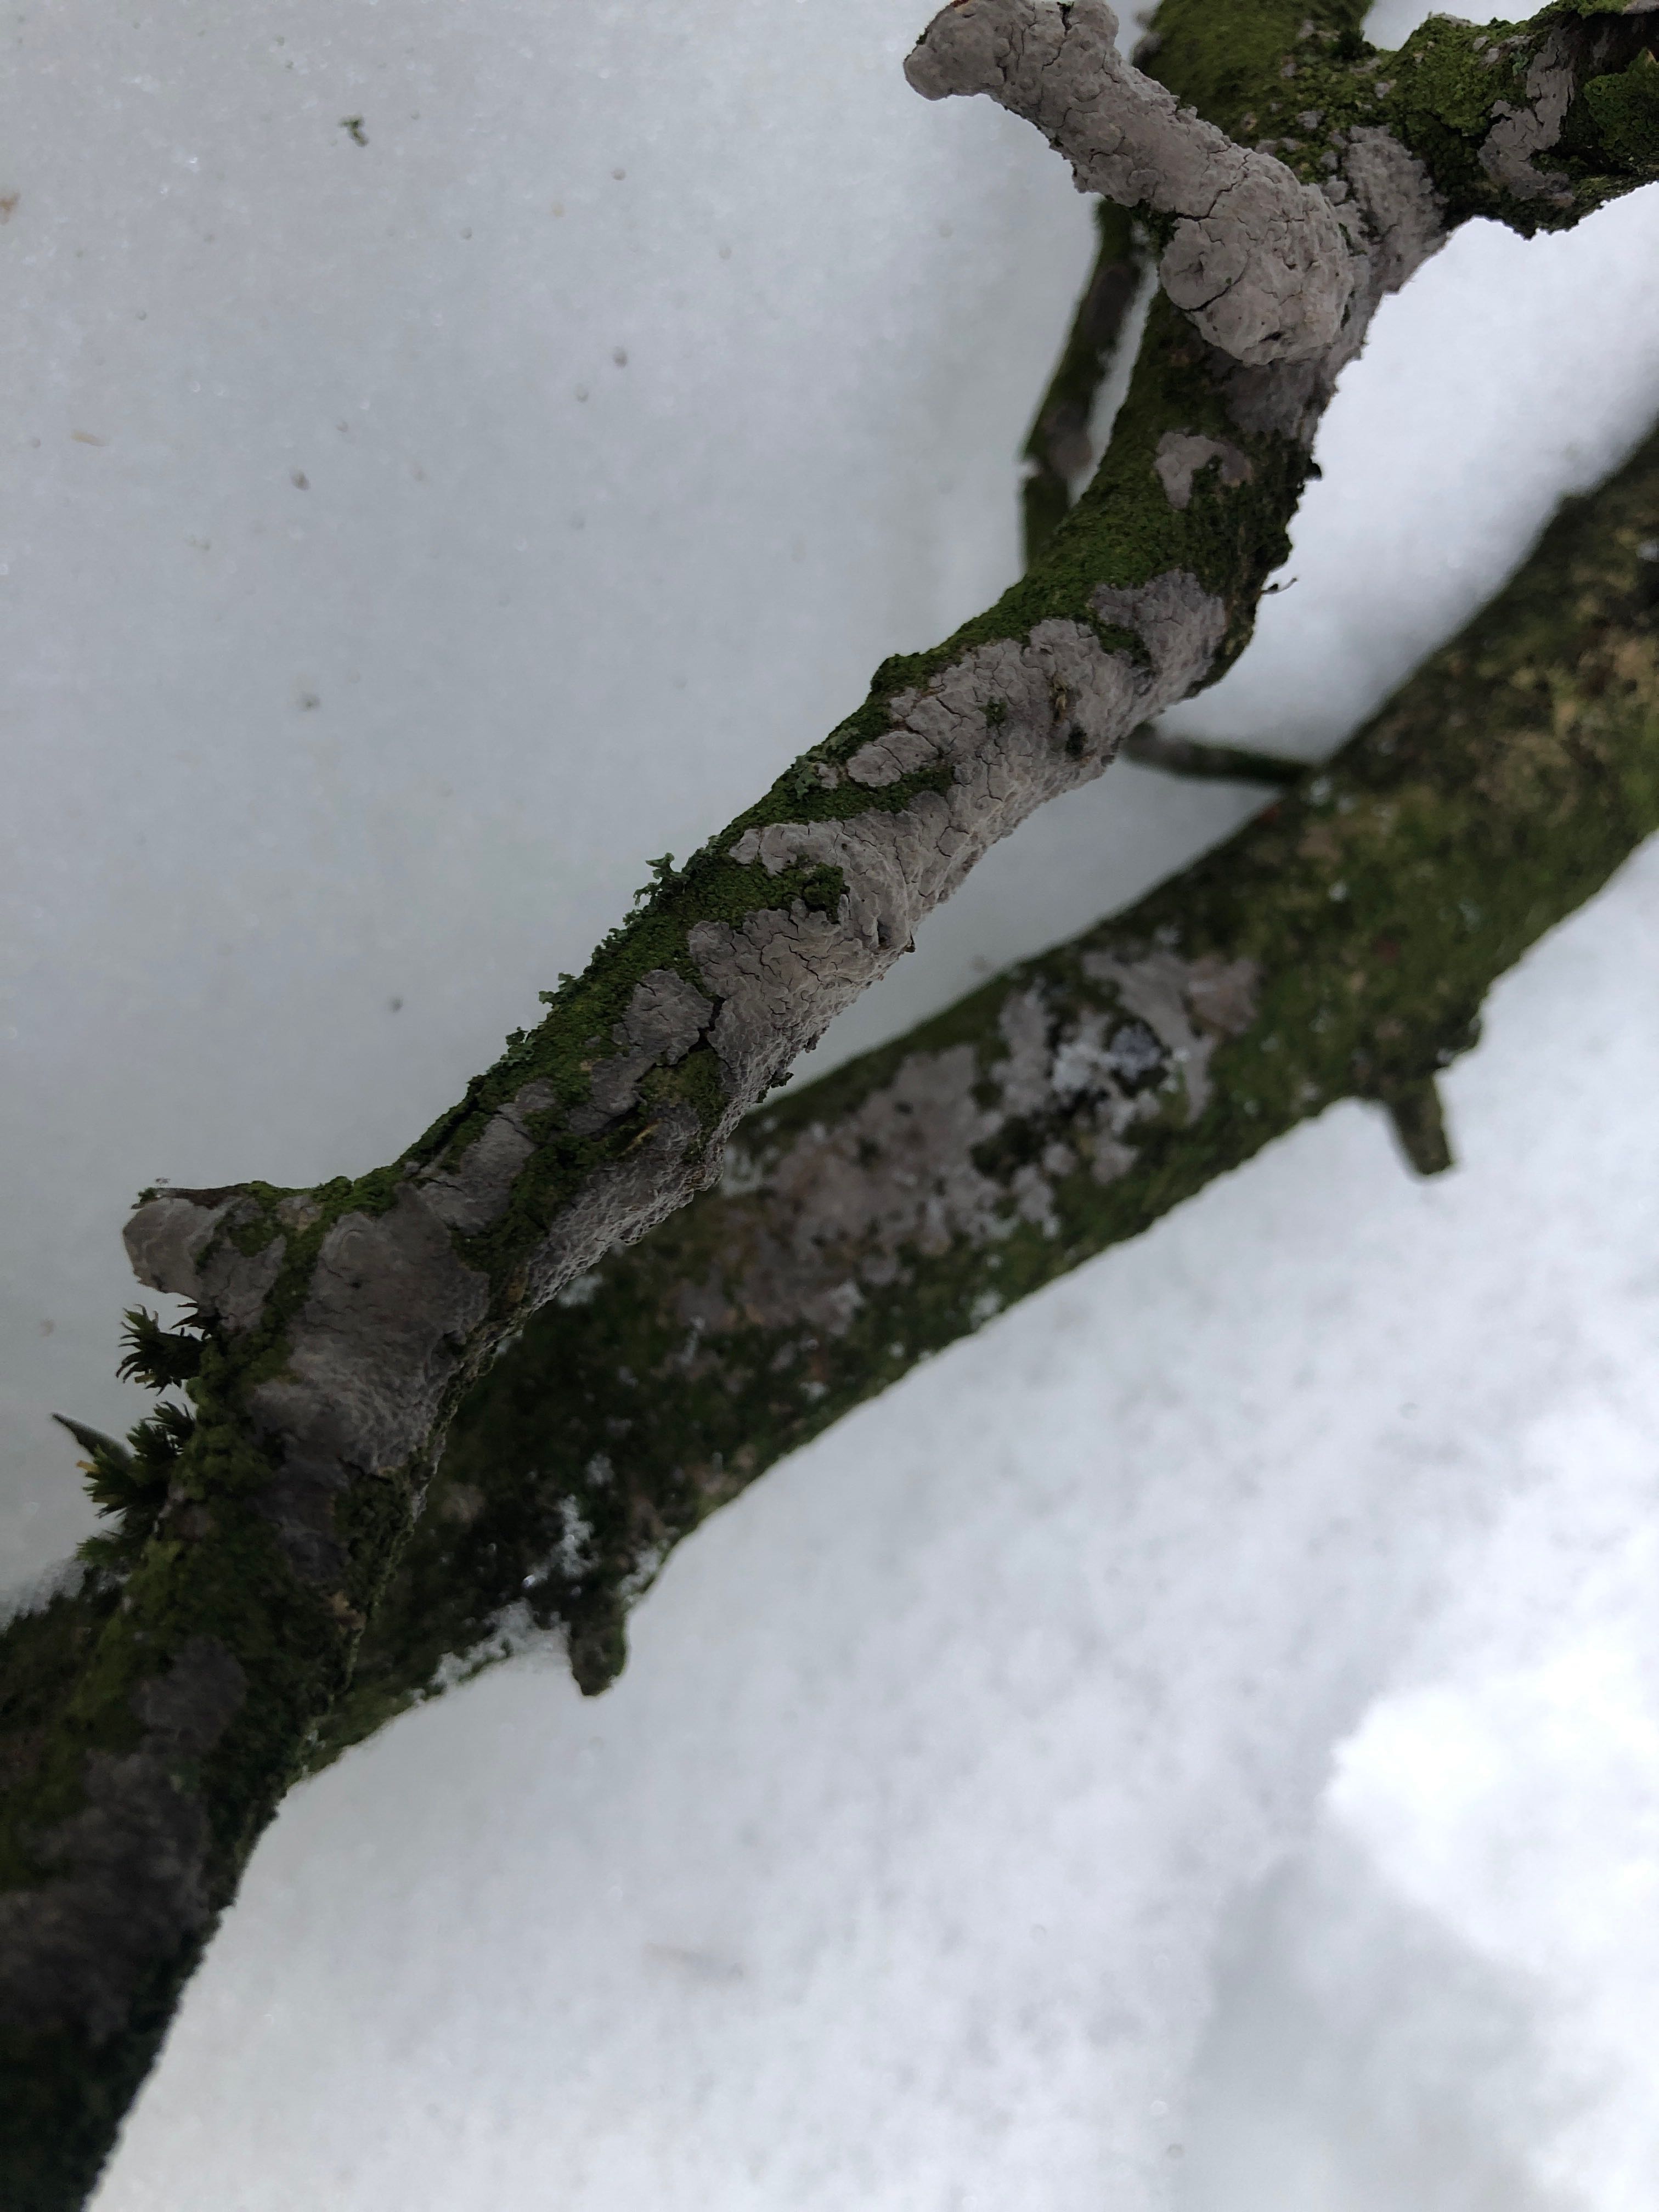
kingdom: Fungi
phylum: Basidiomycota
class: Agaricomycetes
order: Russulales
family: Peniophoraceae
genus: Peniophora
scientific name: Peniophora lycii
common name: grynet voksskind
